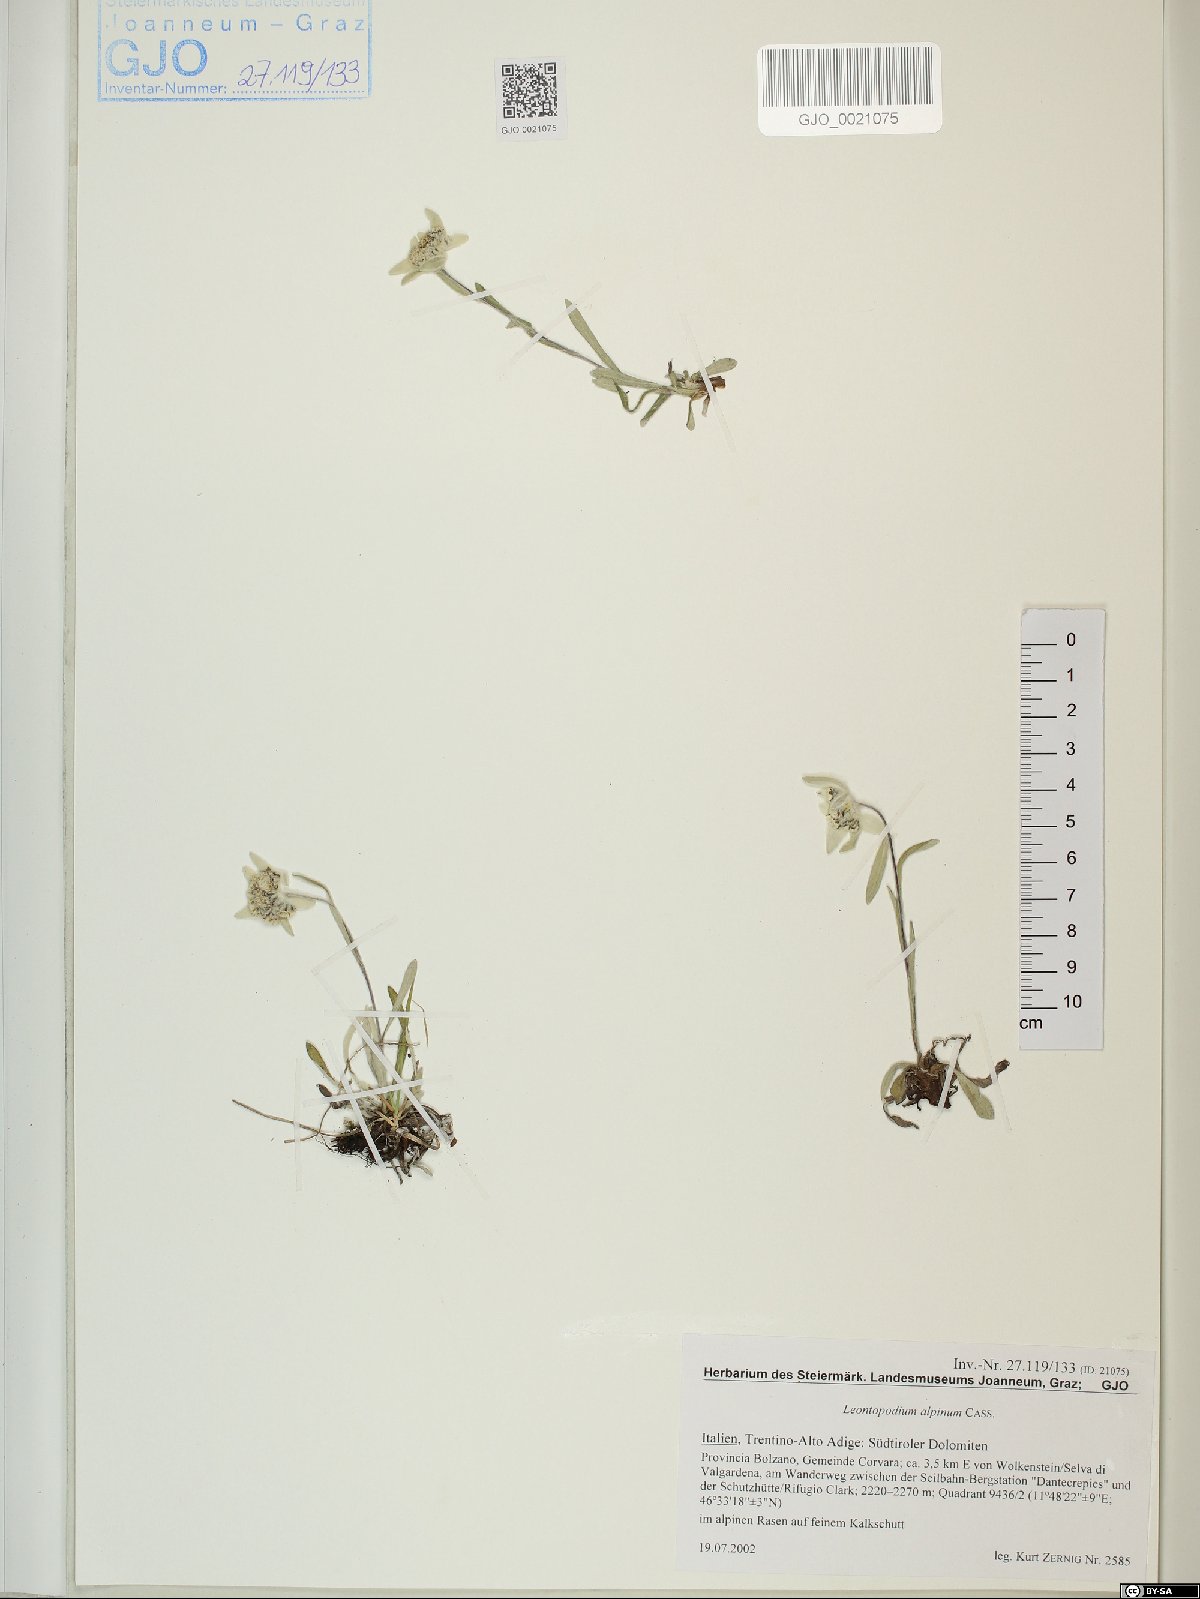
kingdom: Plantae
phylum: Tracheophyta
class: Magnoliopsida
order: Asterales
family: Asteraceae
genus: Leontopodium
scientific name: Leontopodium nivale
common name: Edelweiss
